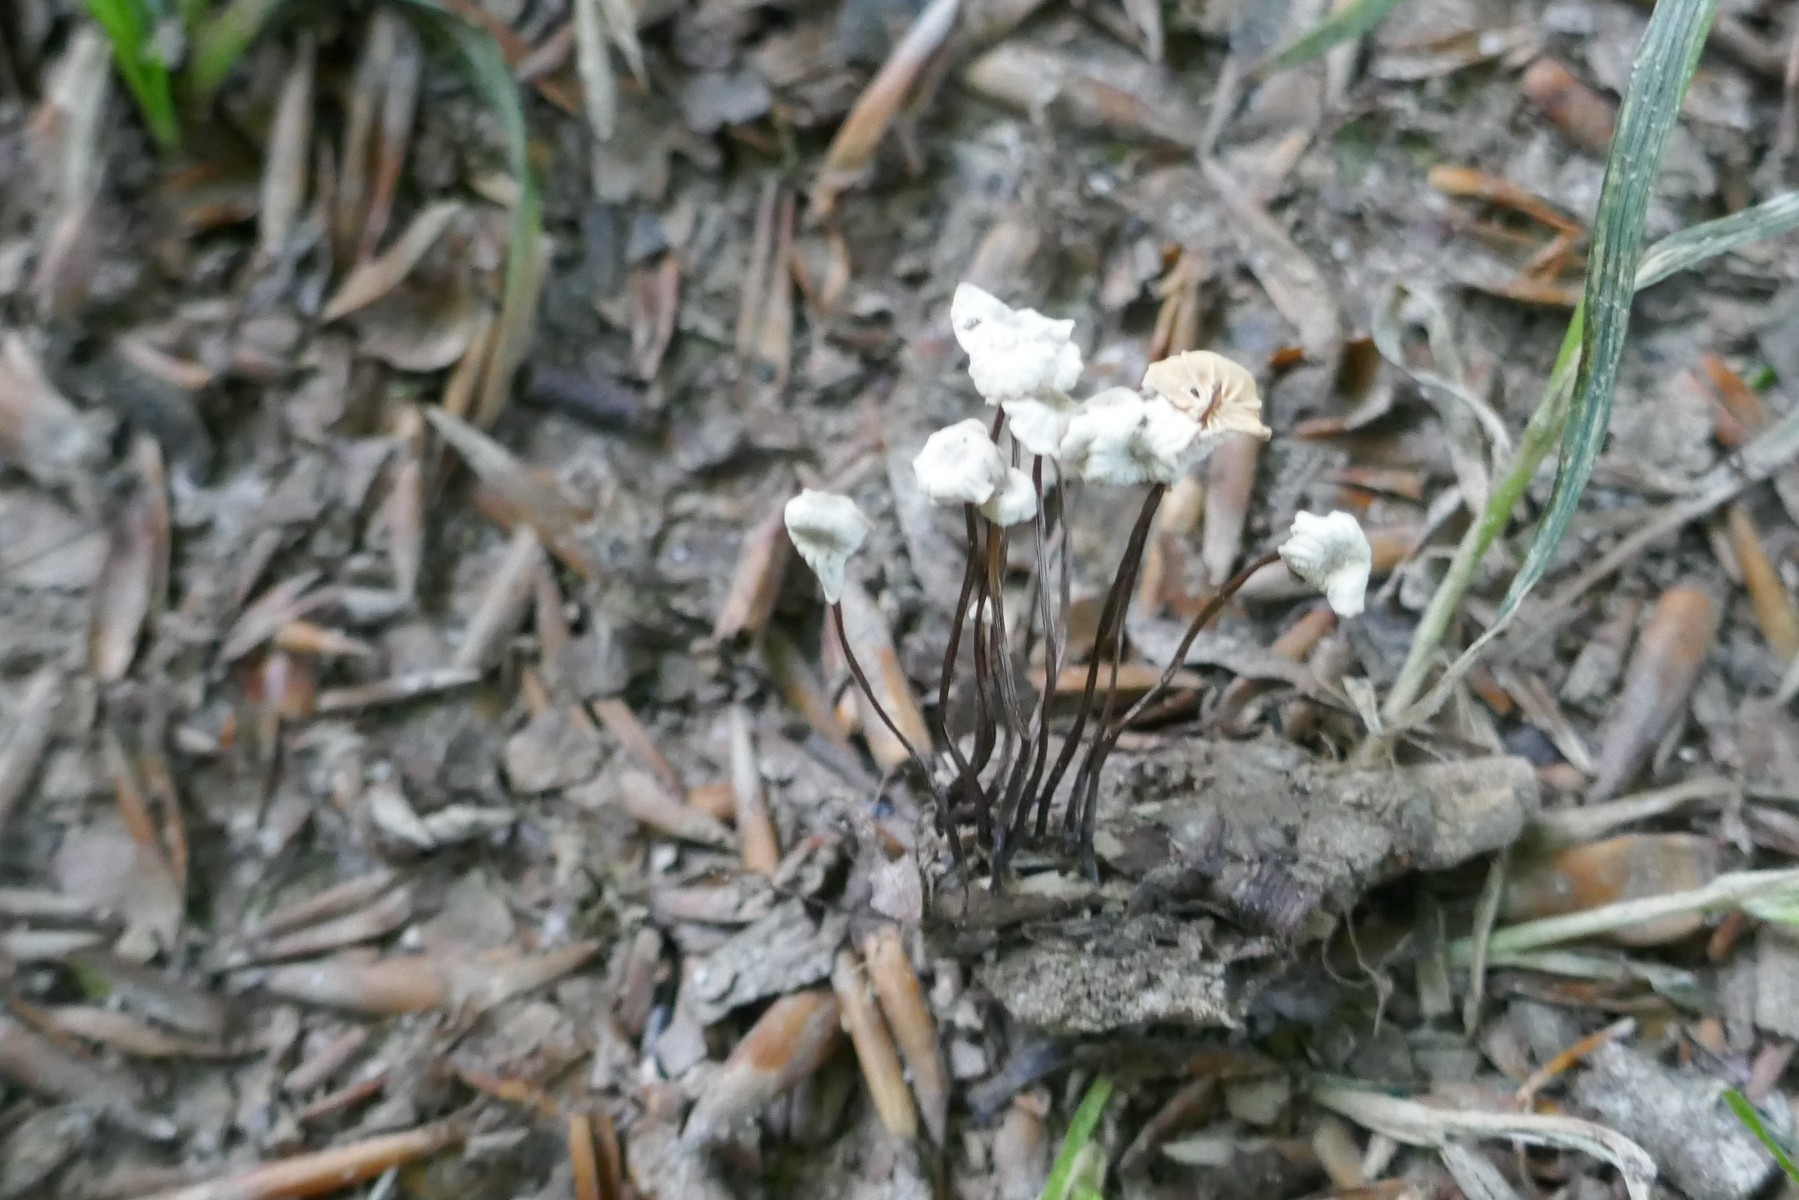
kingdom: Fungi
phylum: Basidiomycota
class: Agaricomycetes
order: Agaricales
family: Marasmiaceae
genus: Marasmius
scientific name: Marasmius rotula
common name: hjul-bruskhat
